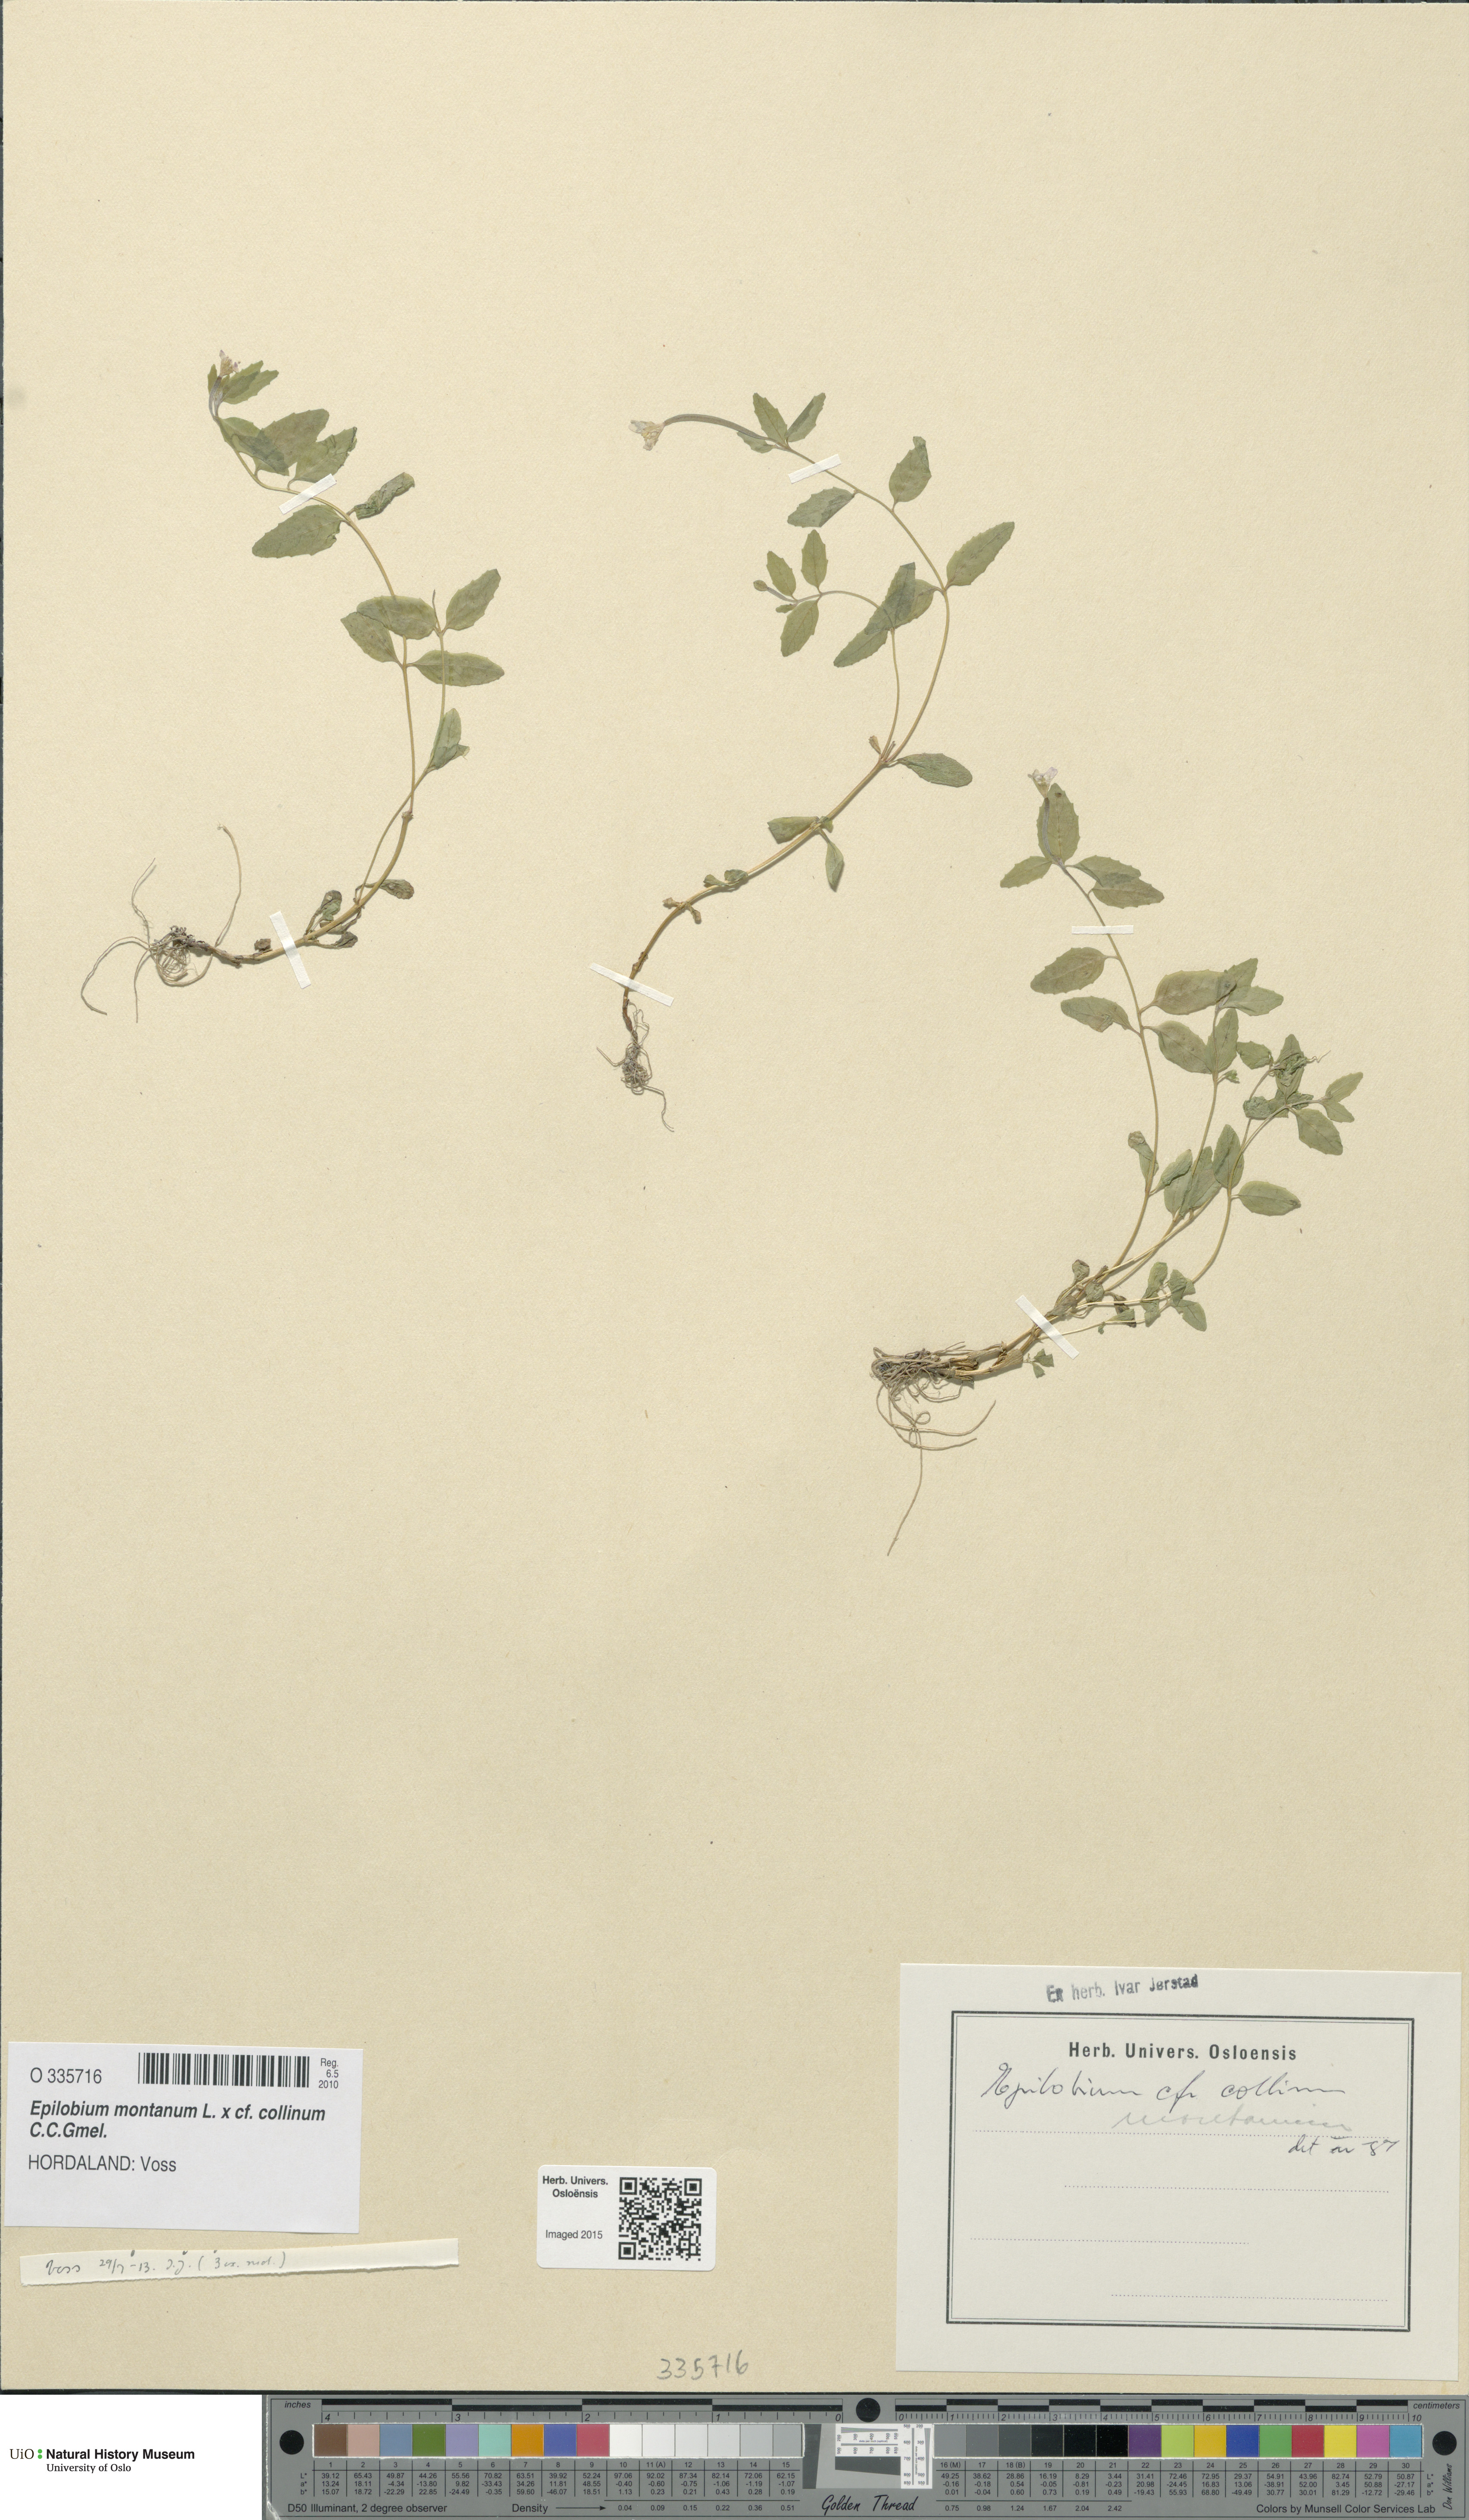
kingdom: Plantae
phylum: Tracheophyta
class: Magnoliopsida
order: Myrtales
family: Onagraceae
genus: Epilobium
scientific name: Epilobium
